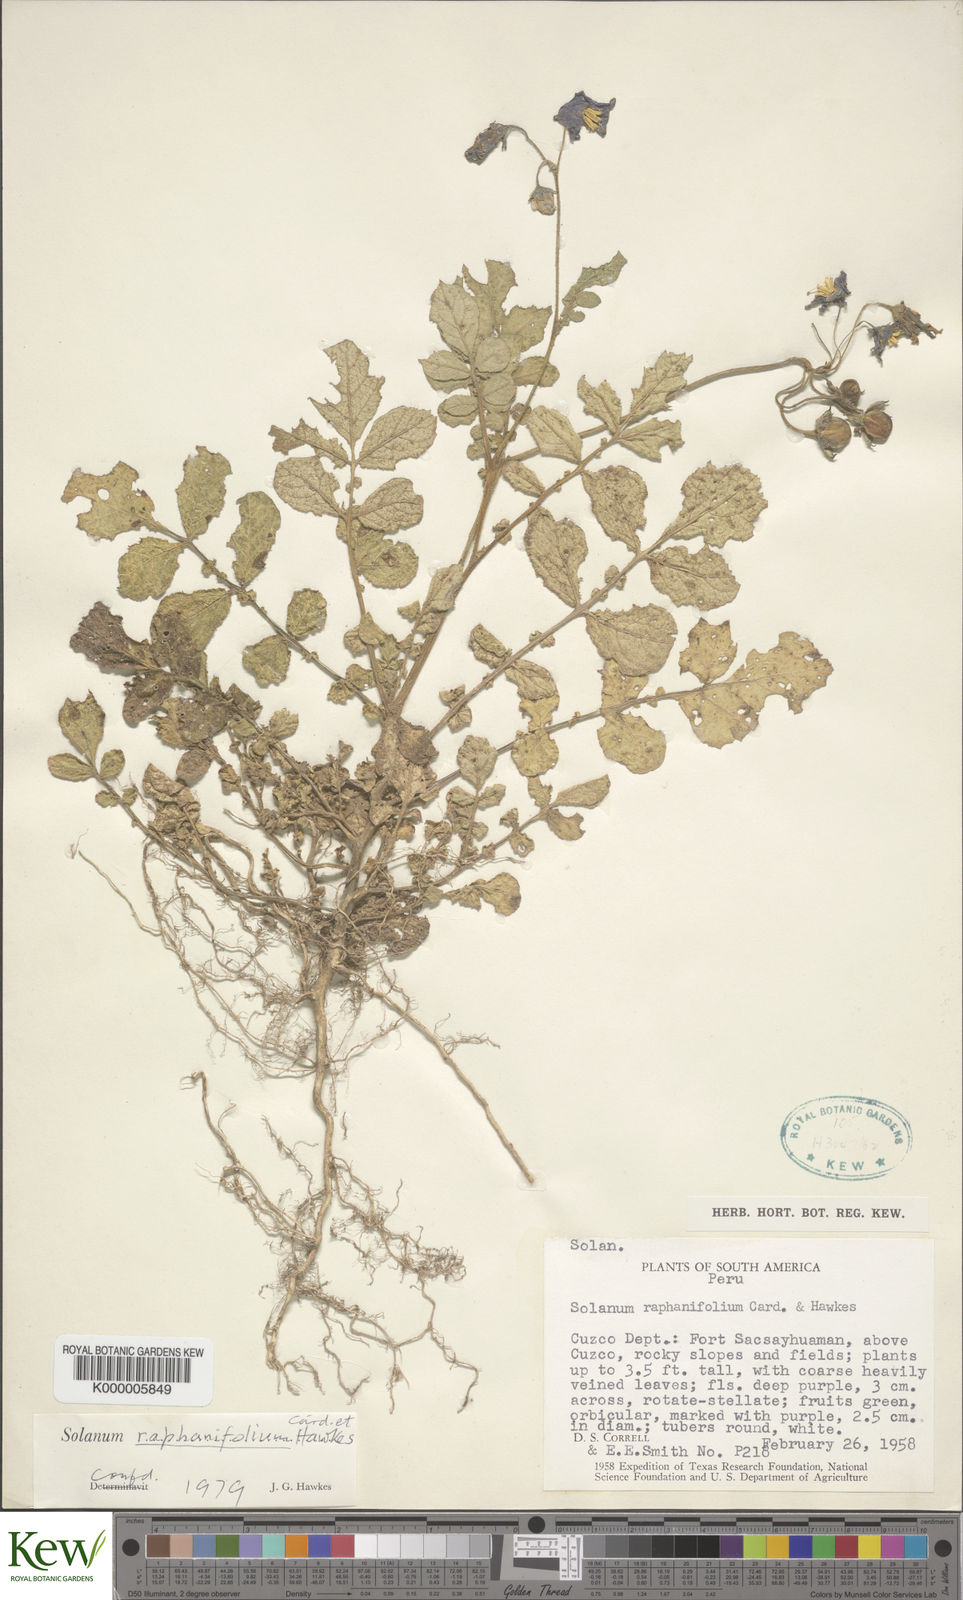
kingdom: Plantae
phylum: Tracheophyta
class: Magnoliopsida
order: Solanales
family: Solanaceae
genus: Solanum
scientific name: Solanum raphanifolium
